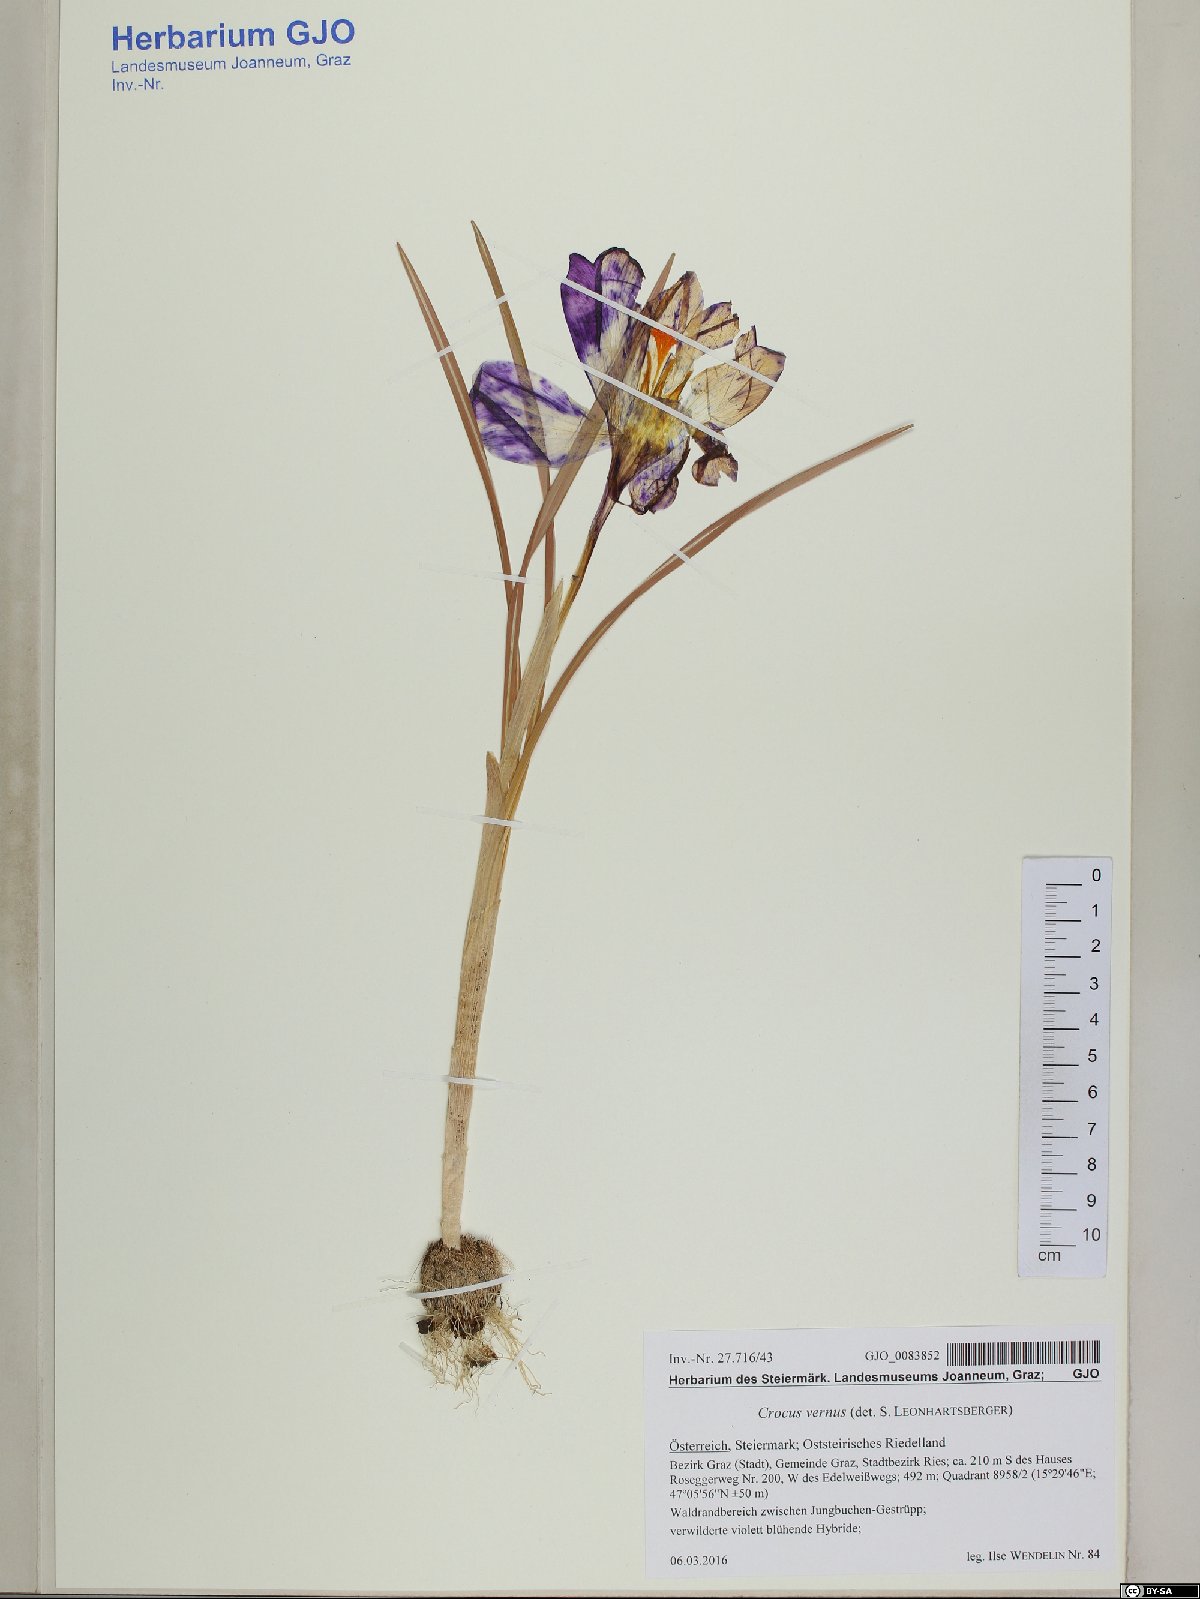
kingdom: Plantae
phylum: Tracheophyta
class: Liliopsida
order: Asparagales
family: Iridaceae
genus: Crocus
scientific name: Crocus vernus
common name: Spring crocus
